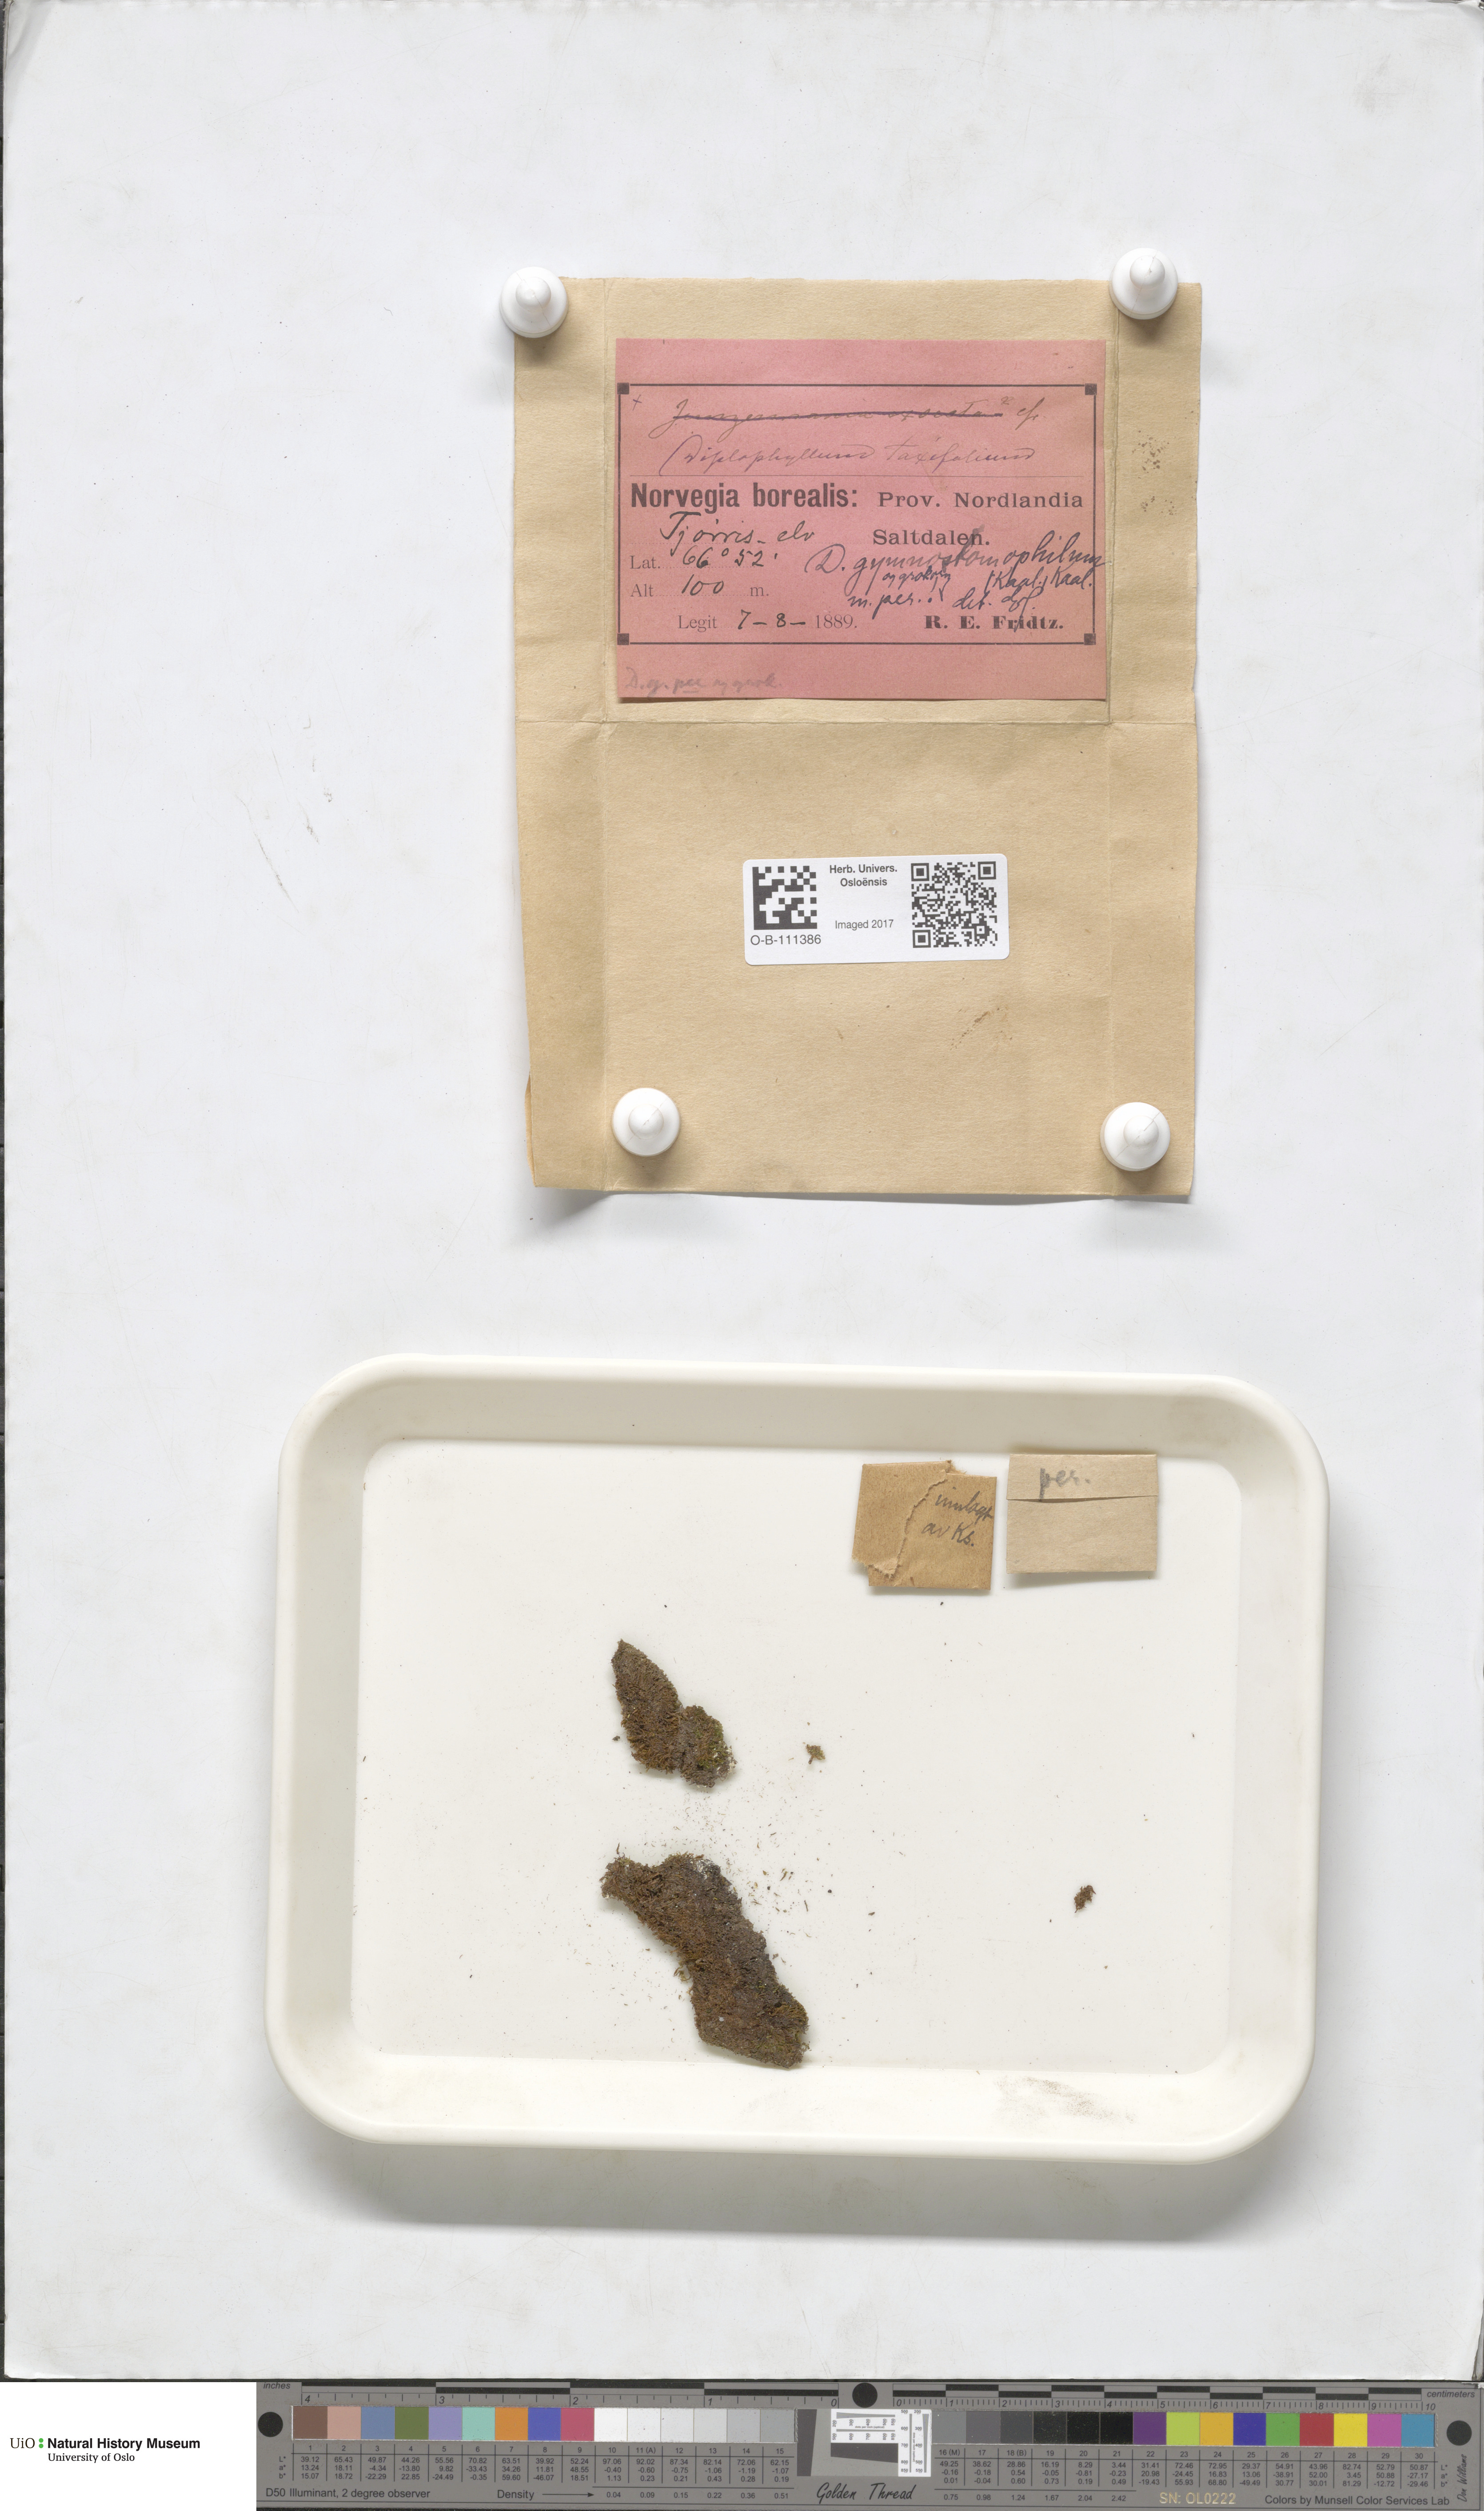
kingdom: Plantae
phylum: Marchantiophyta
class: Jungermanniopsida
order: Jungermanniales
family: Scapaniaceae
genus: Scapania
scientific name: Scapania gymnostomophila
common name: Narrow-lobed earwort
